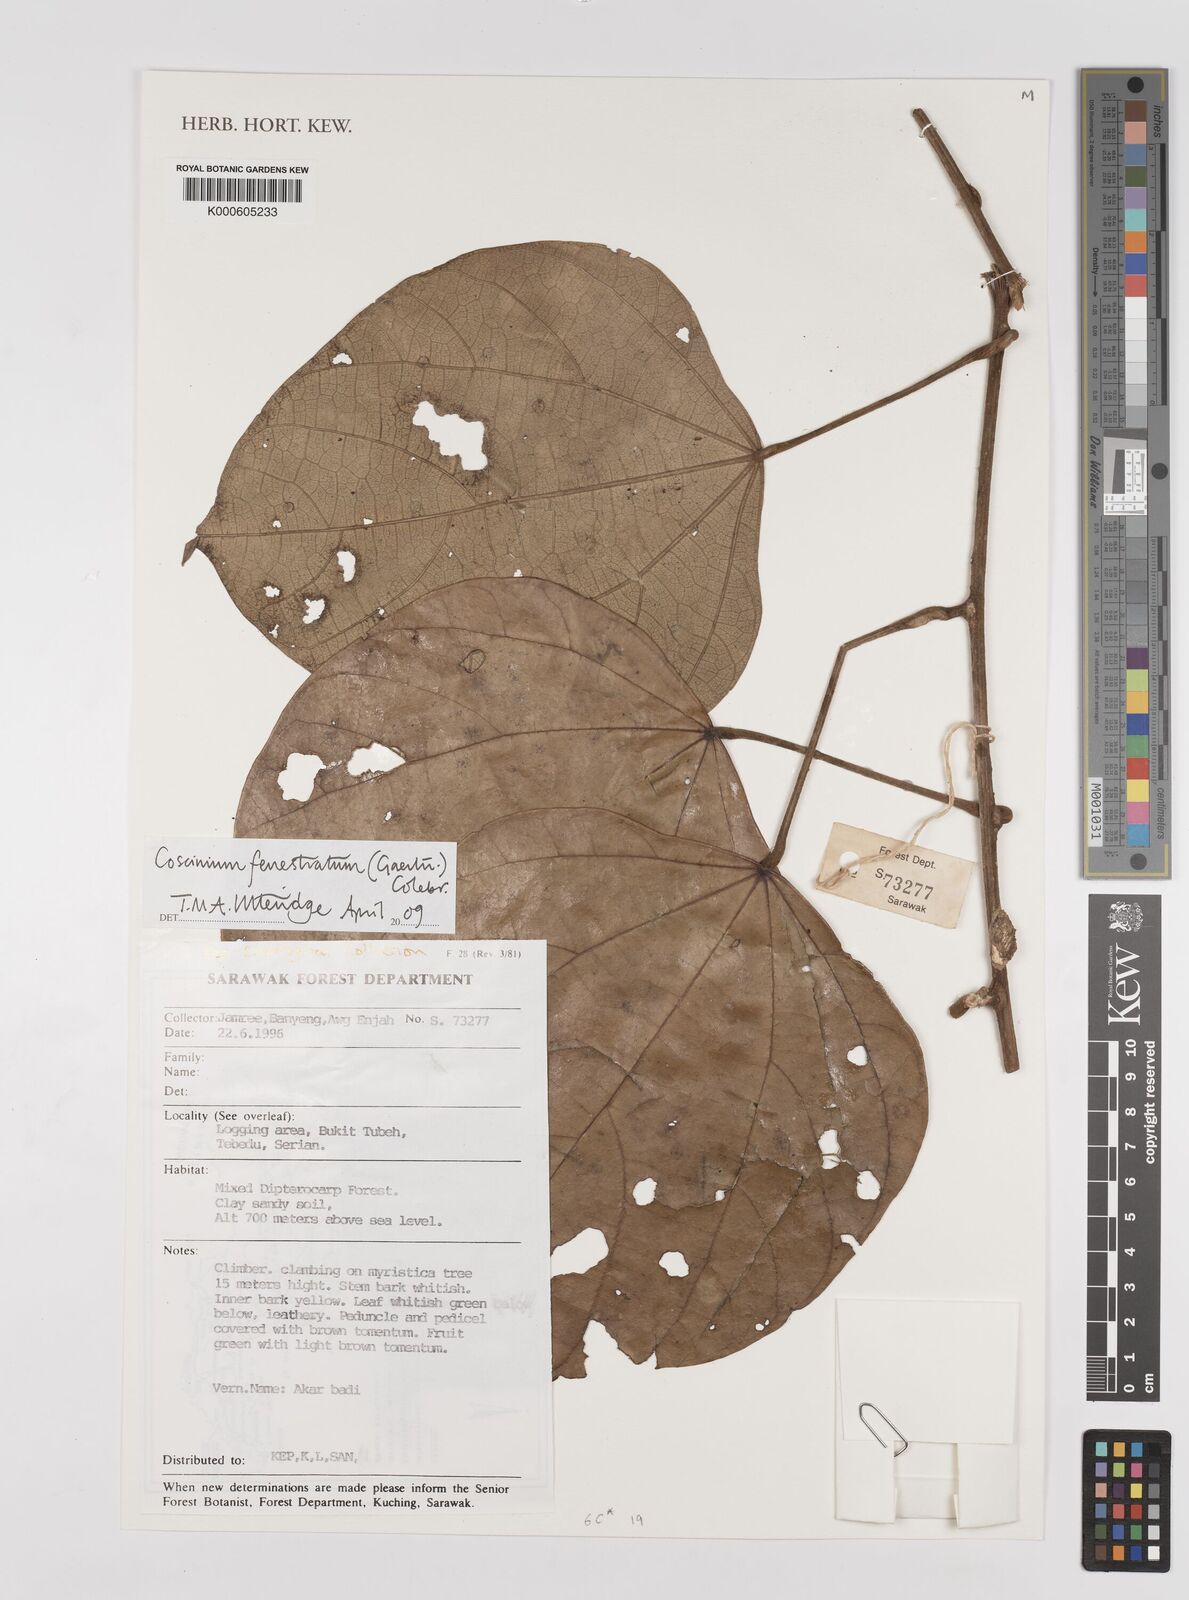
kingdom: Plantae
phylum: Tracheophyta
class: Magnoliopsida
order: Ranunculales
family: Menispermaceae
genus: Coscinium
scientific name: Coscinium fenestratum
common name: False calumba
